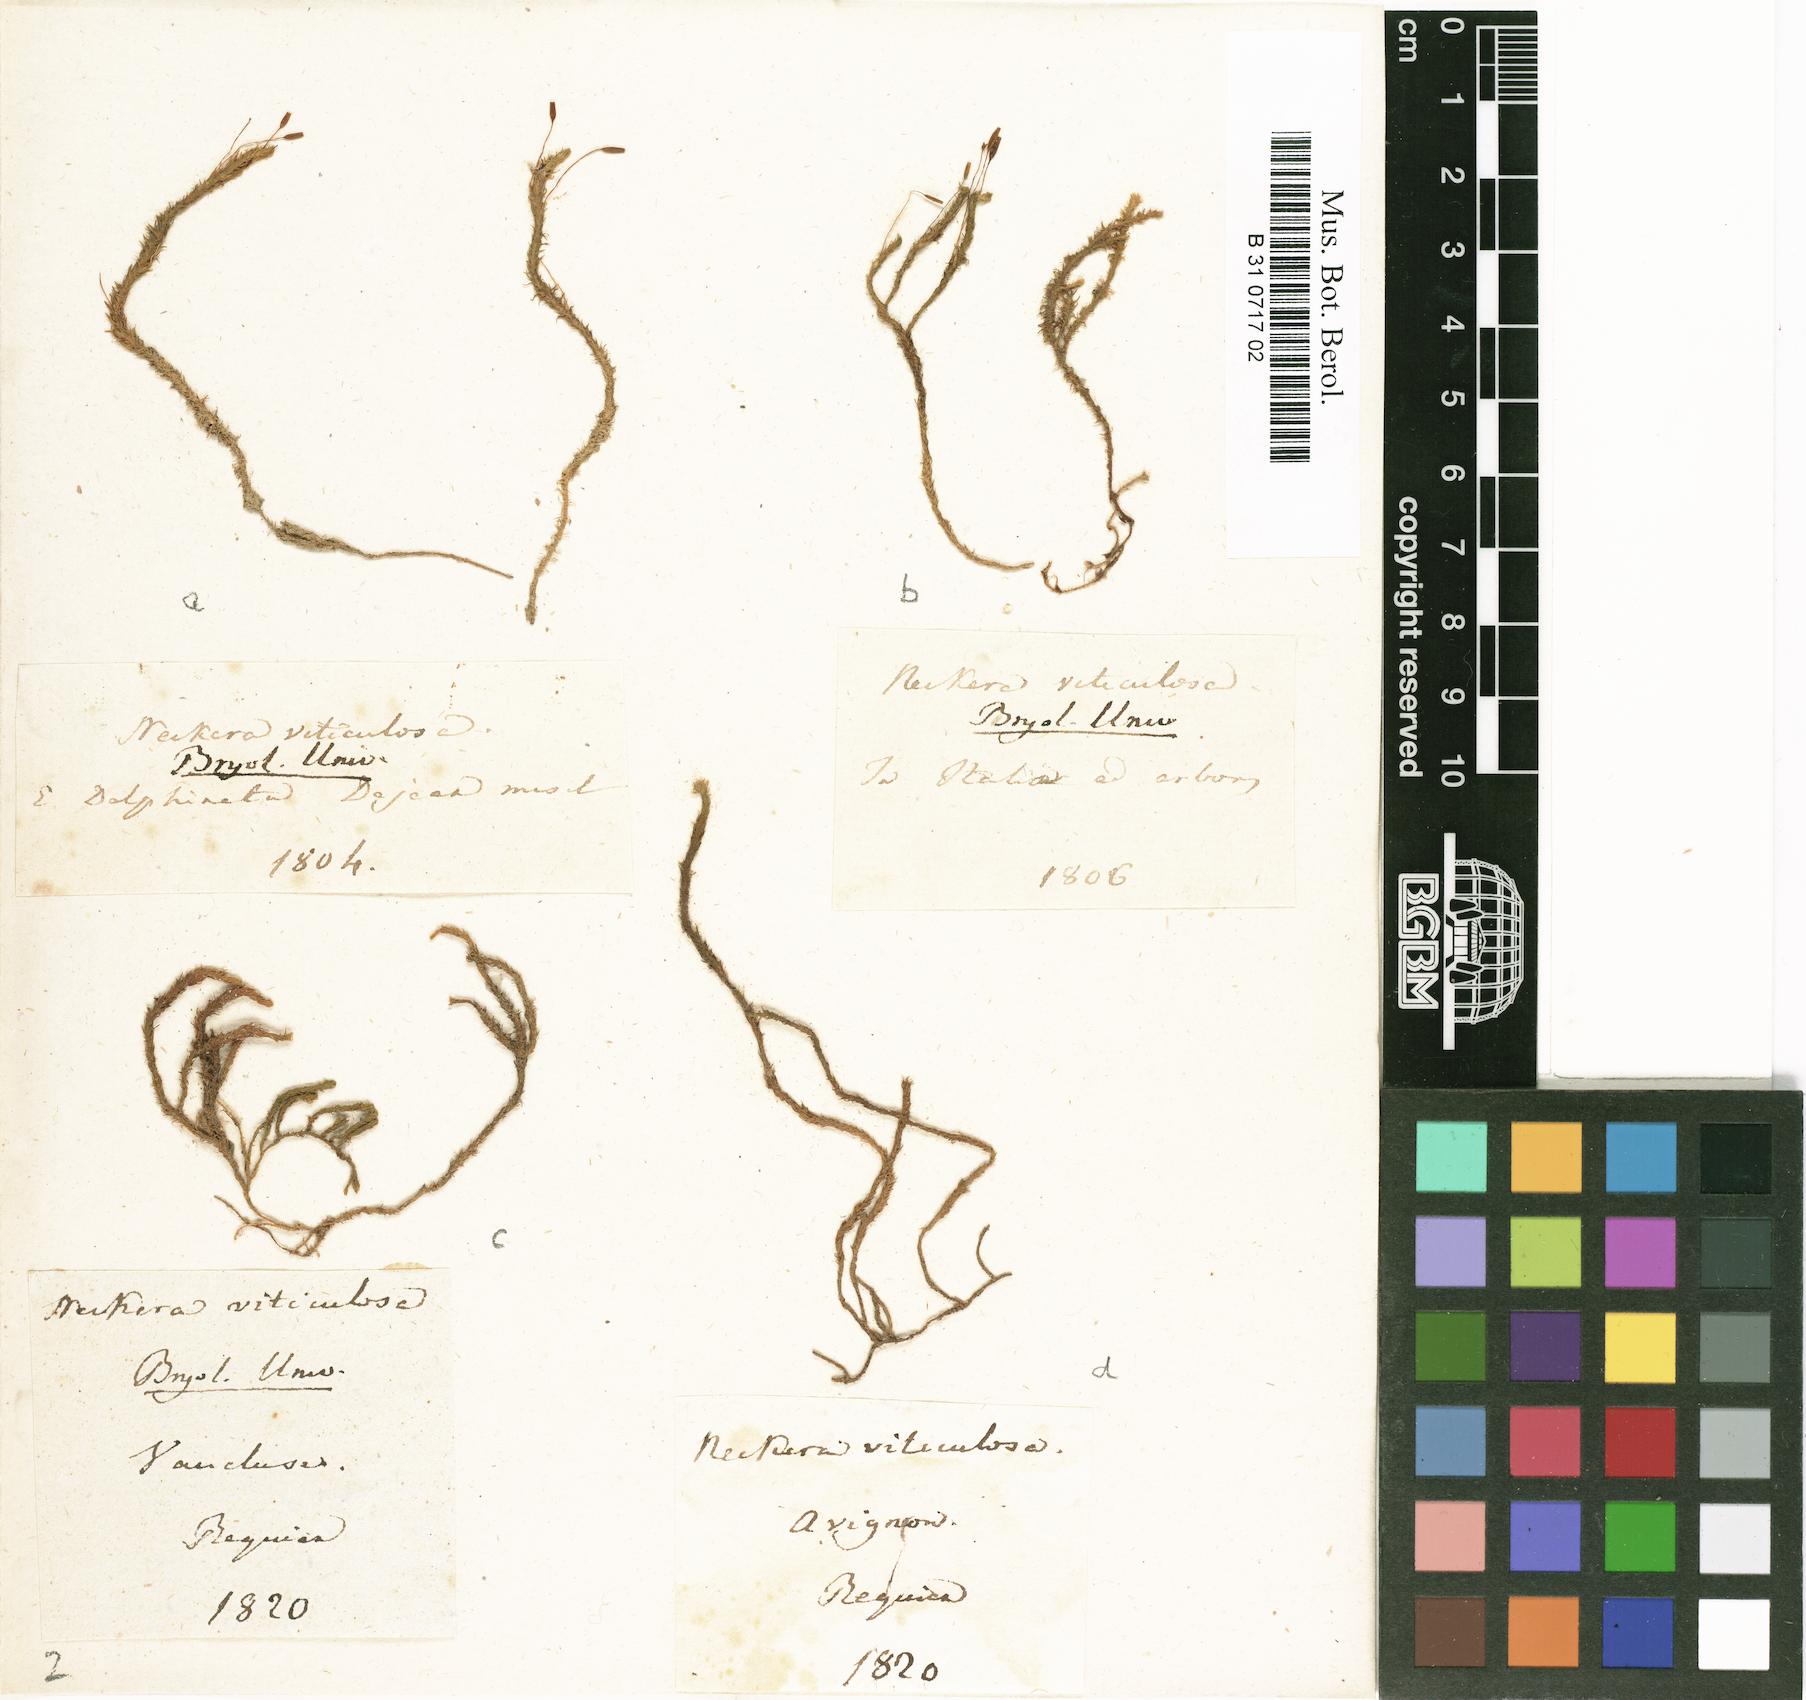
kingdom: Plantae
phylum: Bryophyta
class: Bryopsida
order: Hypnales
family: Anomodontaceae
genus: Anomodon
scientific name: Anomodon viticulosus
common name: Tall anomodon
